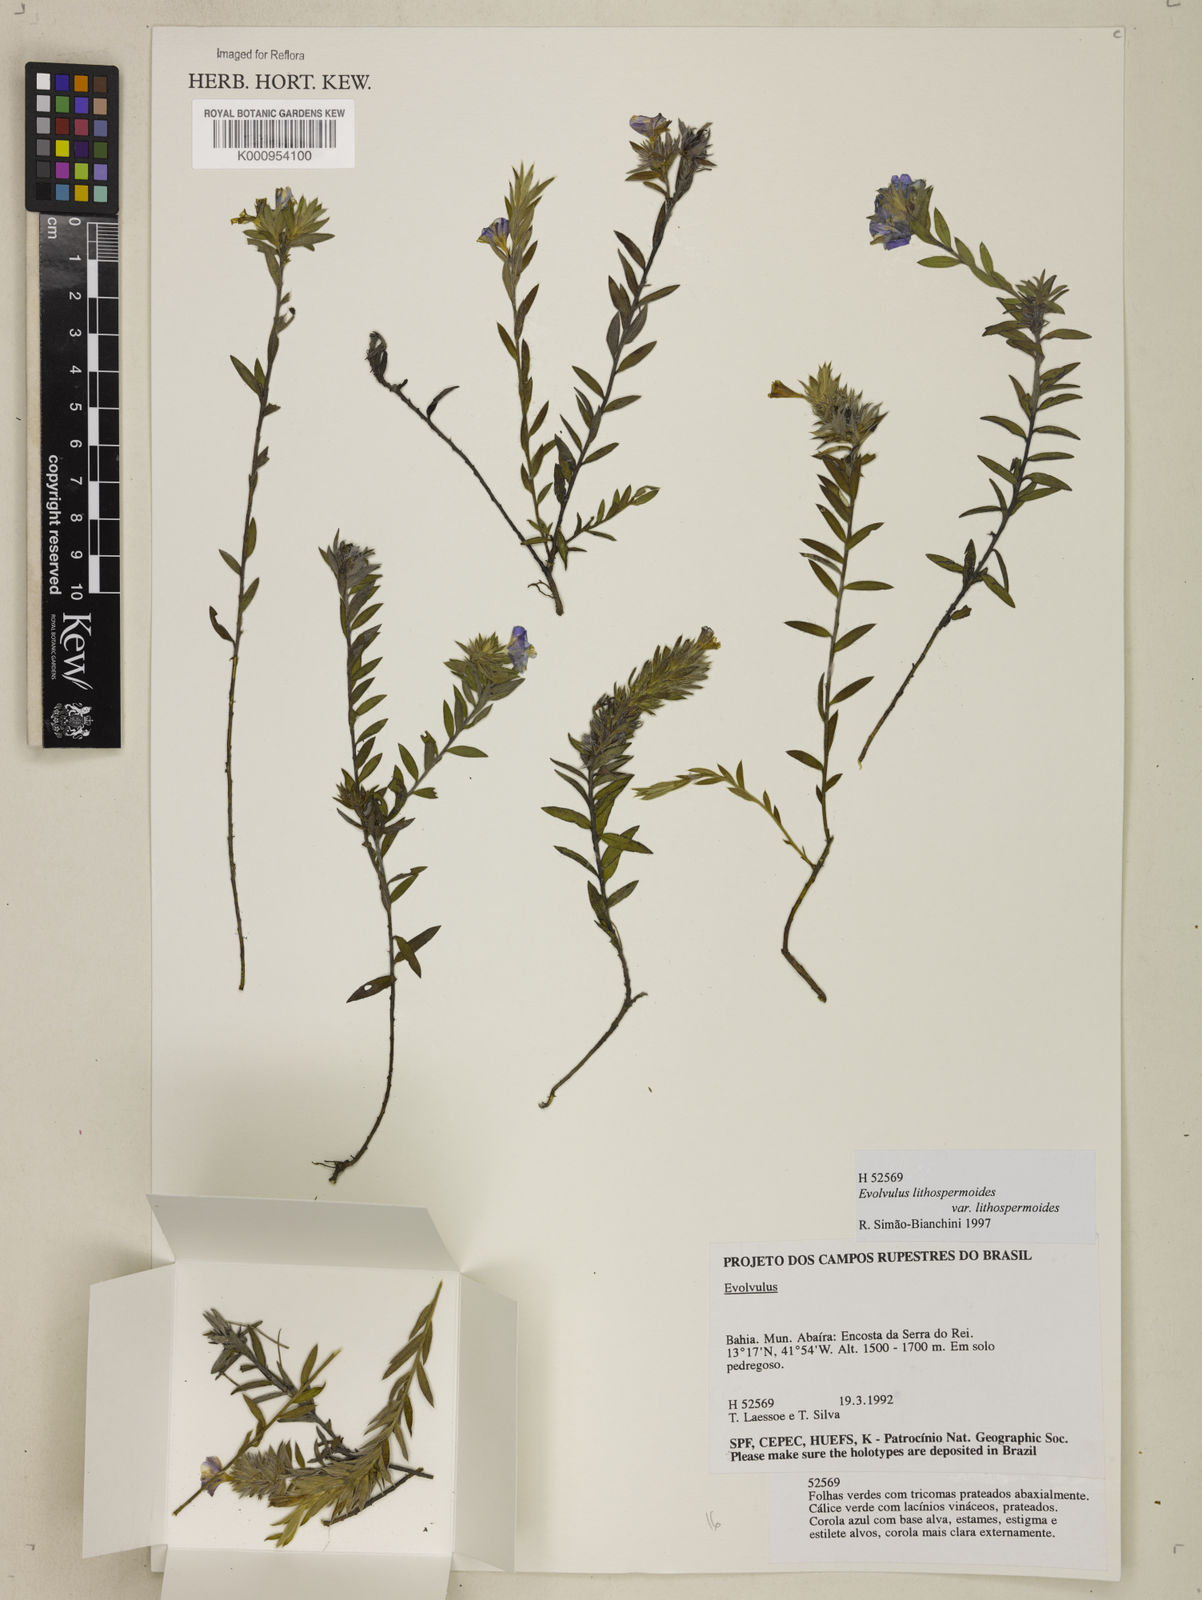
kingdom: Plantae
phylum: Tracheophyta
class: Magnoliopsida
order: Solanales
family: Convolvulaceae
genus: Evolvulus
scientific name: Evolvulus lithospermoides
